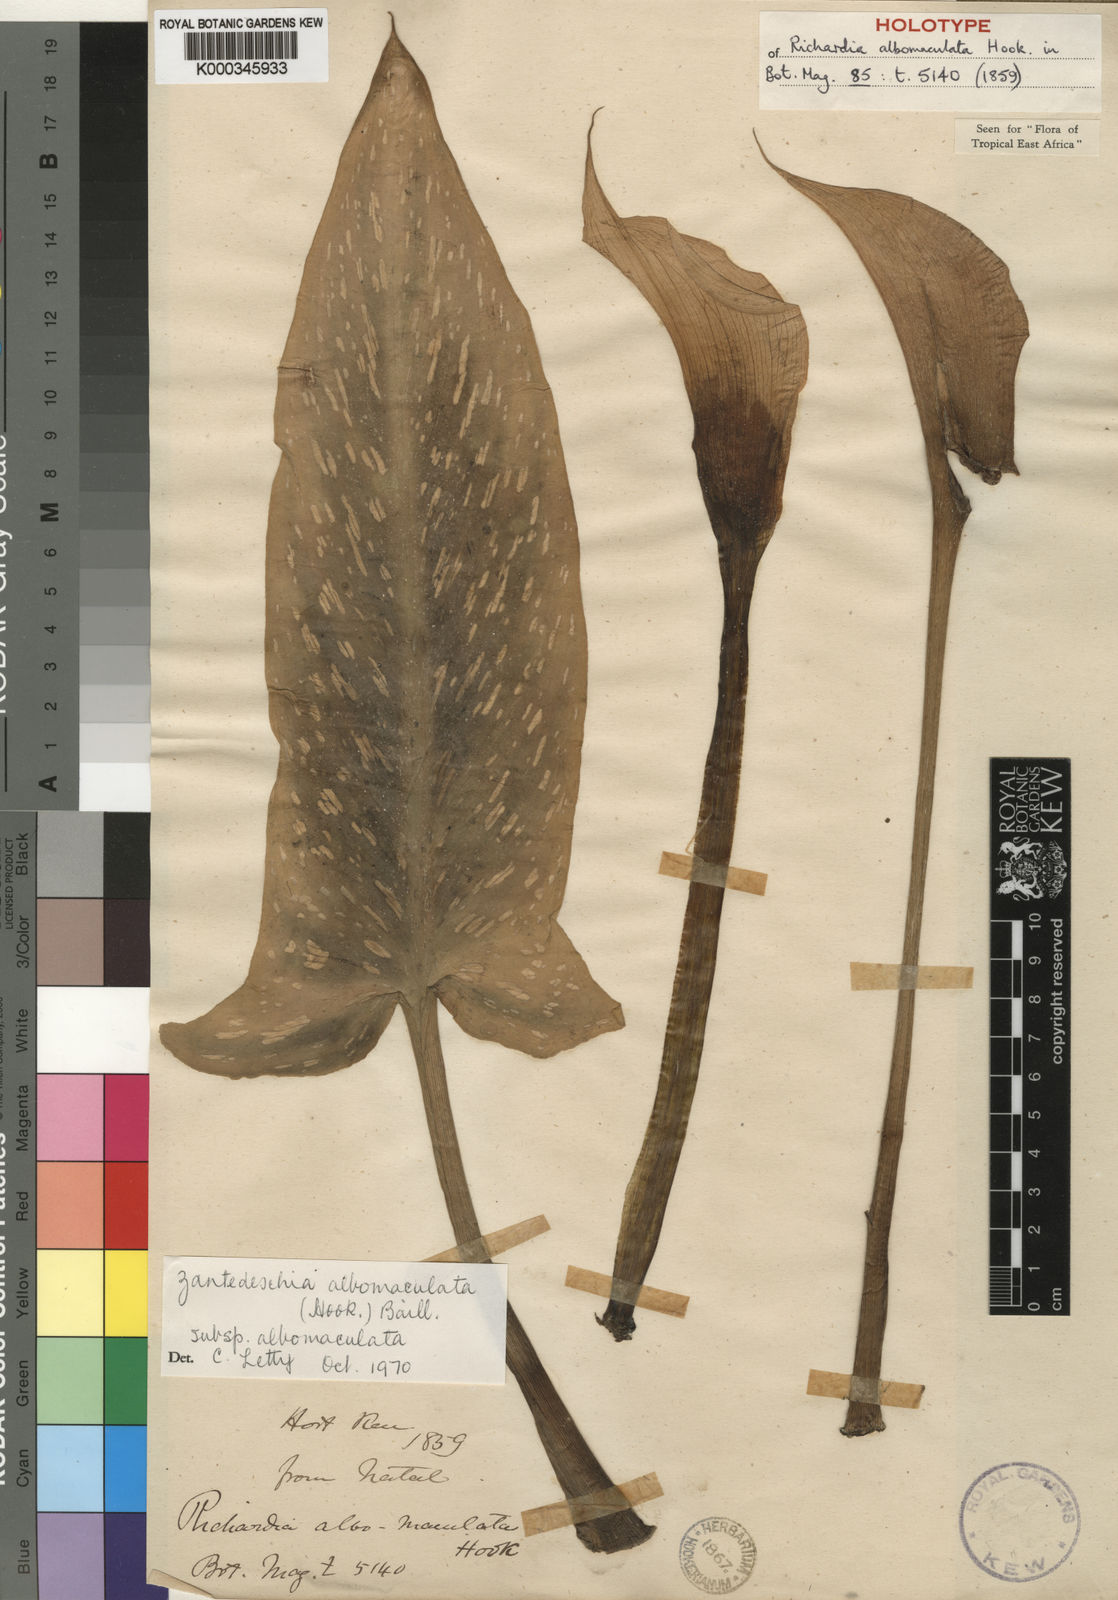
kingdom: Plantae
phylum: Tracheophyta
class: Liliopsida
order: Alismatales
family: Araceae
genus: Zantedeschia
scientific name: Zantedeschia albomaculata
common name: Spotted calla lily
